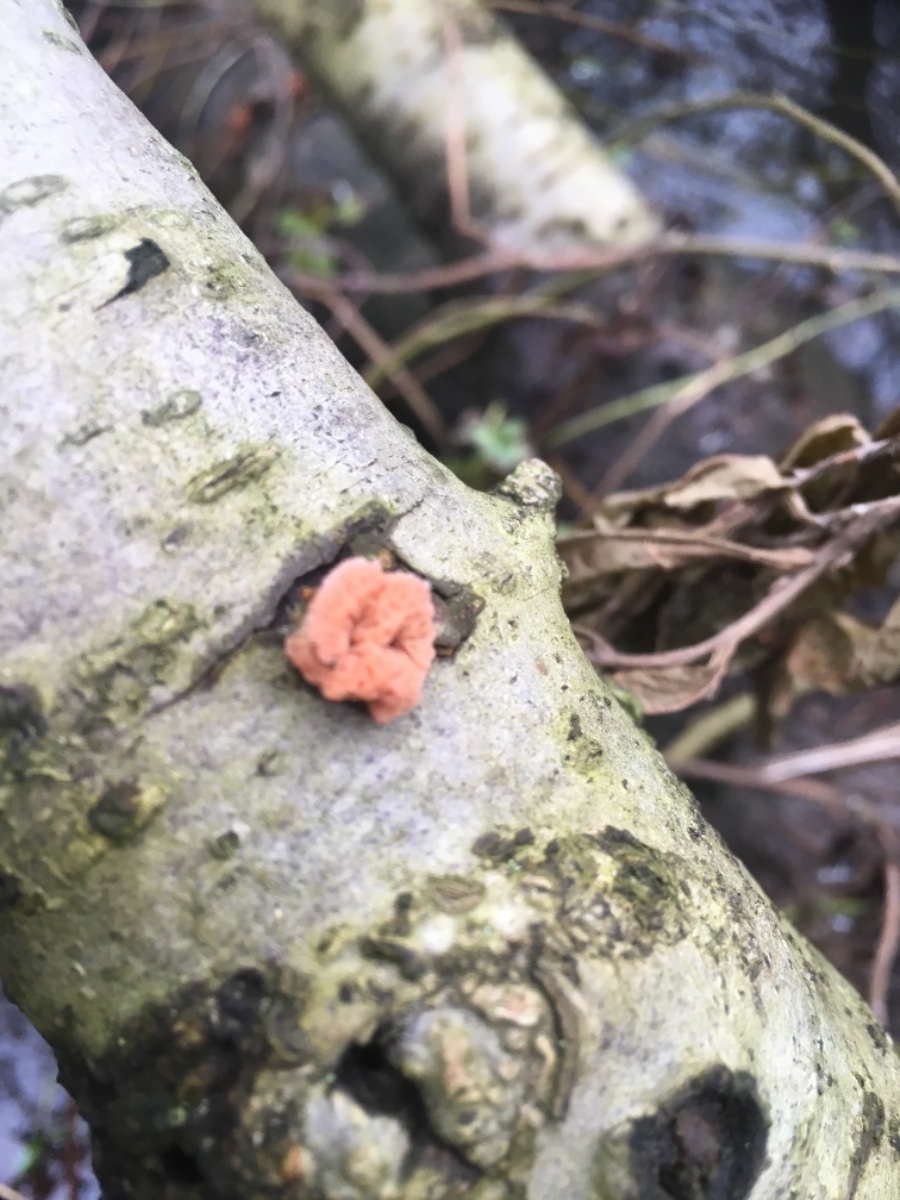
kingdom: Fungi
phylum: Basidiomycota
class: Agaricomycetes
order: Polyporales
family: Meruliaceae
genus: Phlebia
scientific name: Phlebia tremellosa
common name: bævrende åresvamp
